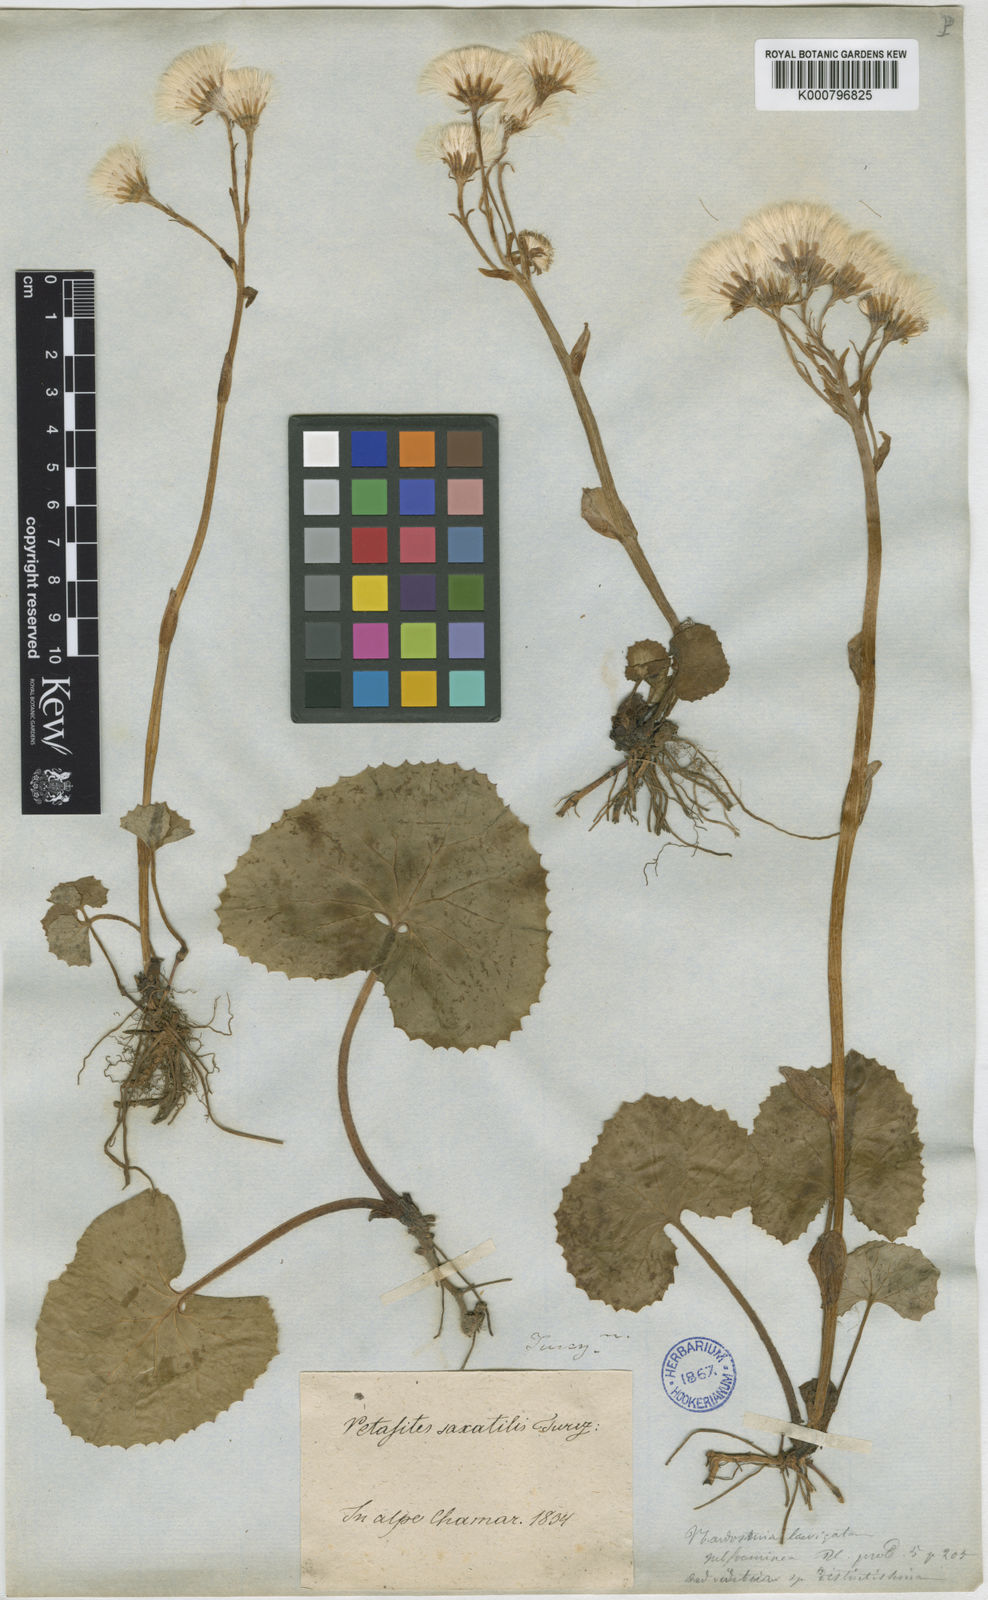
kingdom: Plantae
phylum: Tracheophyta
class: Magnoliopsida
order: Asterales
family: Asteraceae
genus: Petasites
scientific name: Petasites rubellus
